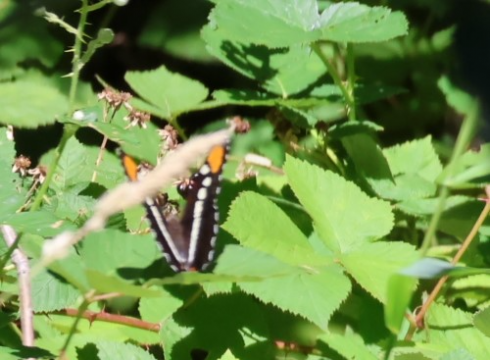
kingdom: Animalia
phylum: Arthropoda
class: Insecta
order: Lepidoptera
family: Nymphalidae
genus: Limenitis
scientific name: Limenitis bredowii
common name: Arizona Sister
